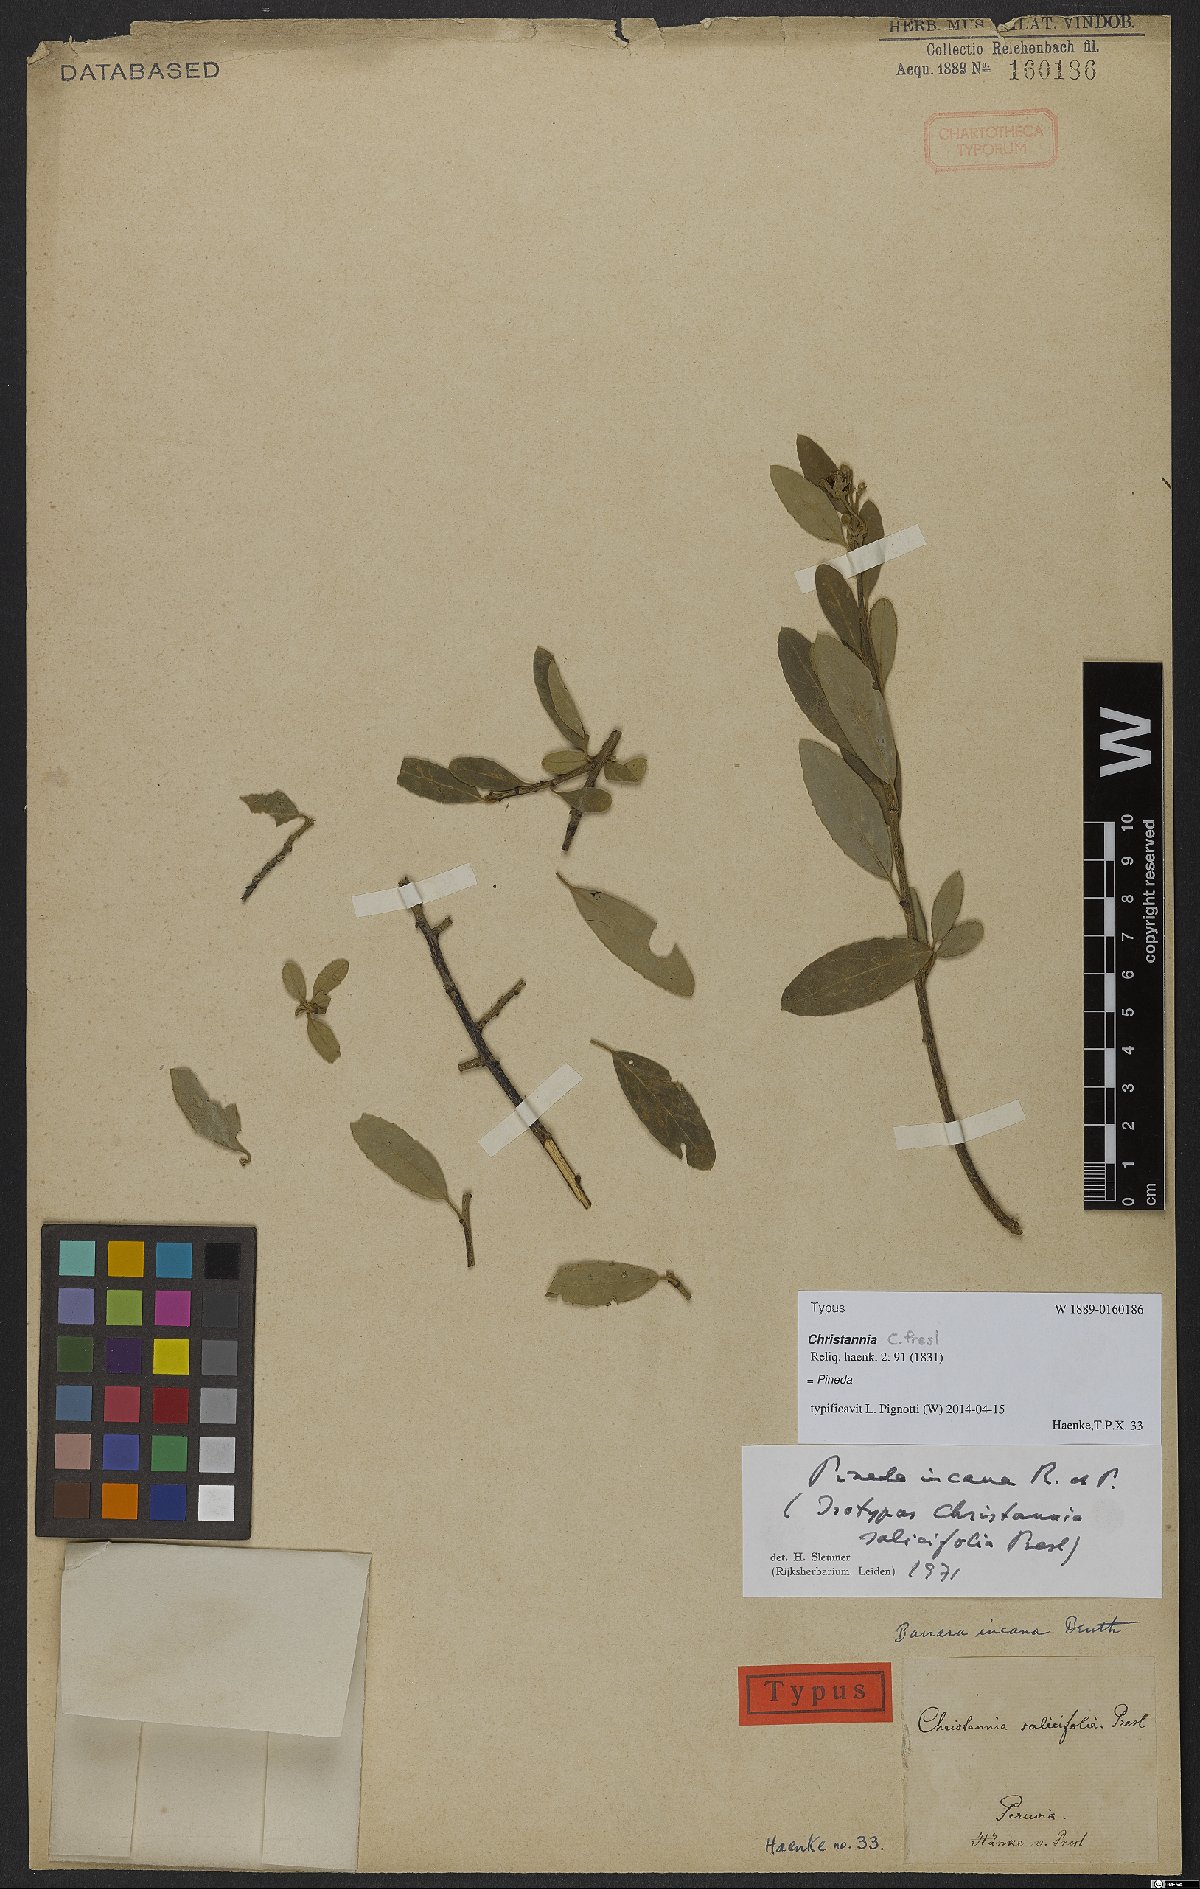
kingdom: Plantae
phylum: Tracheophyta
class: Magnoliopsida
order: Malpighiales
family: Salicaceae
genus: Pineda
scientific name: Pineda incana
